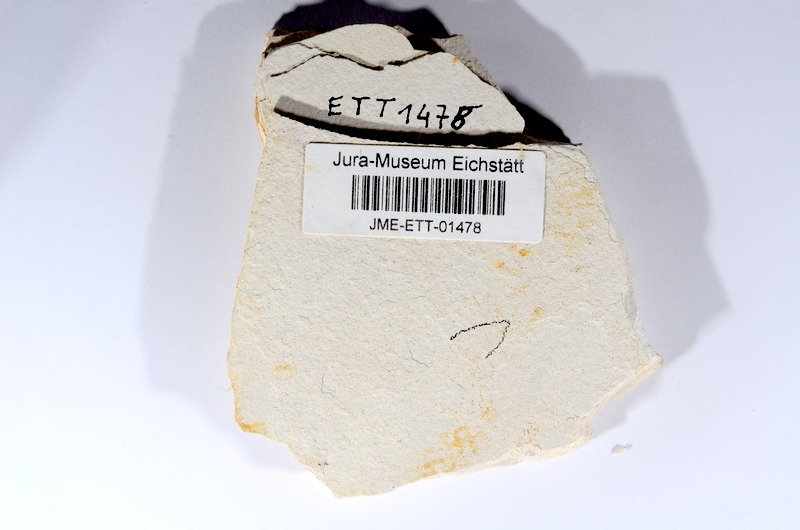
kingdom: Animalia
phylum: Chordata
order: Salmoniformes
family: Orthogonikleithridae
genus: Orthogonikleithrus
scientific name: Orthogonikleithrus hoelli
